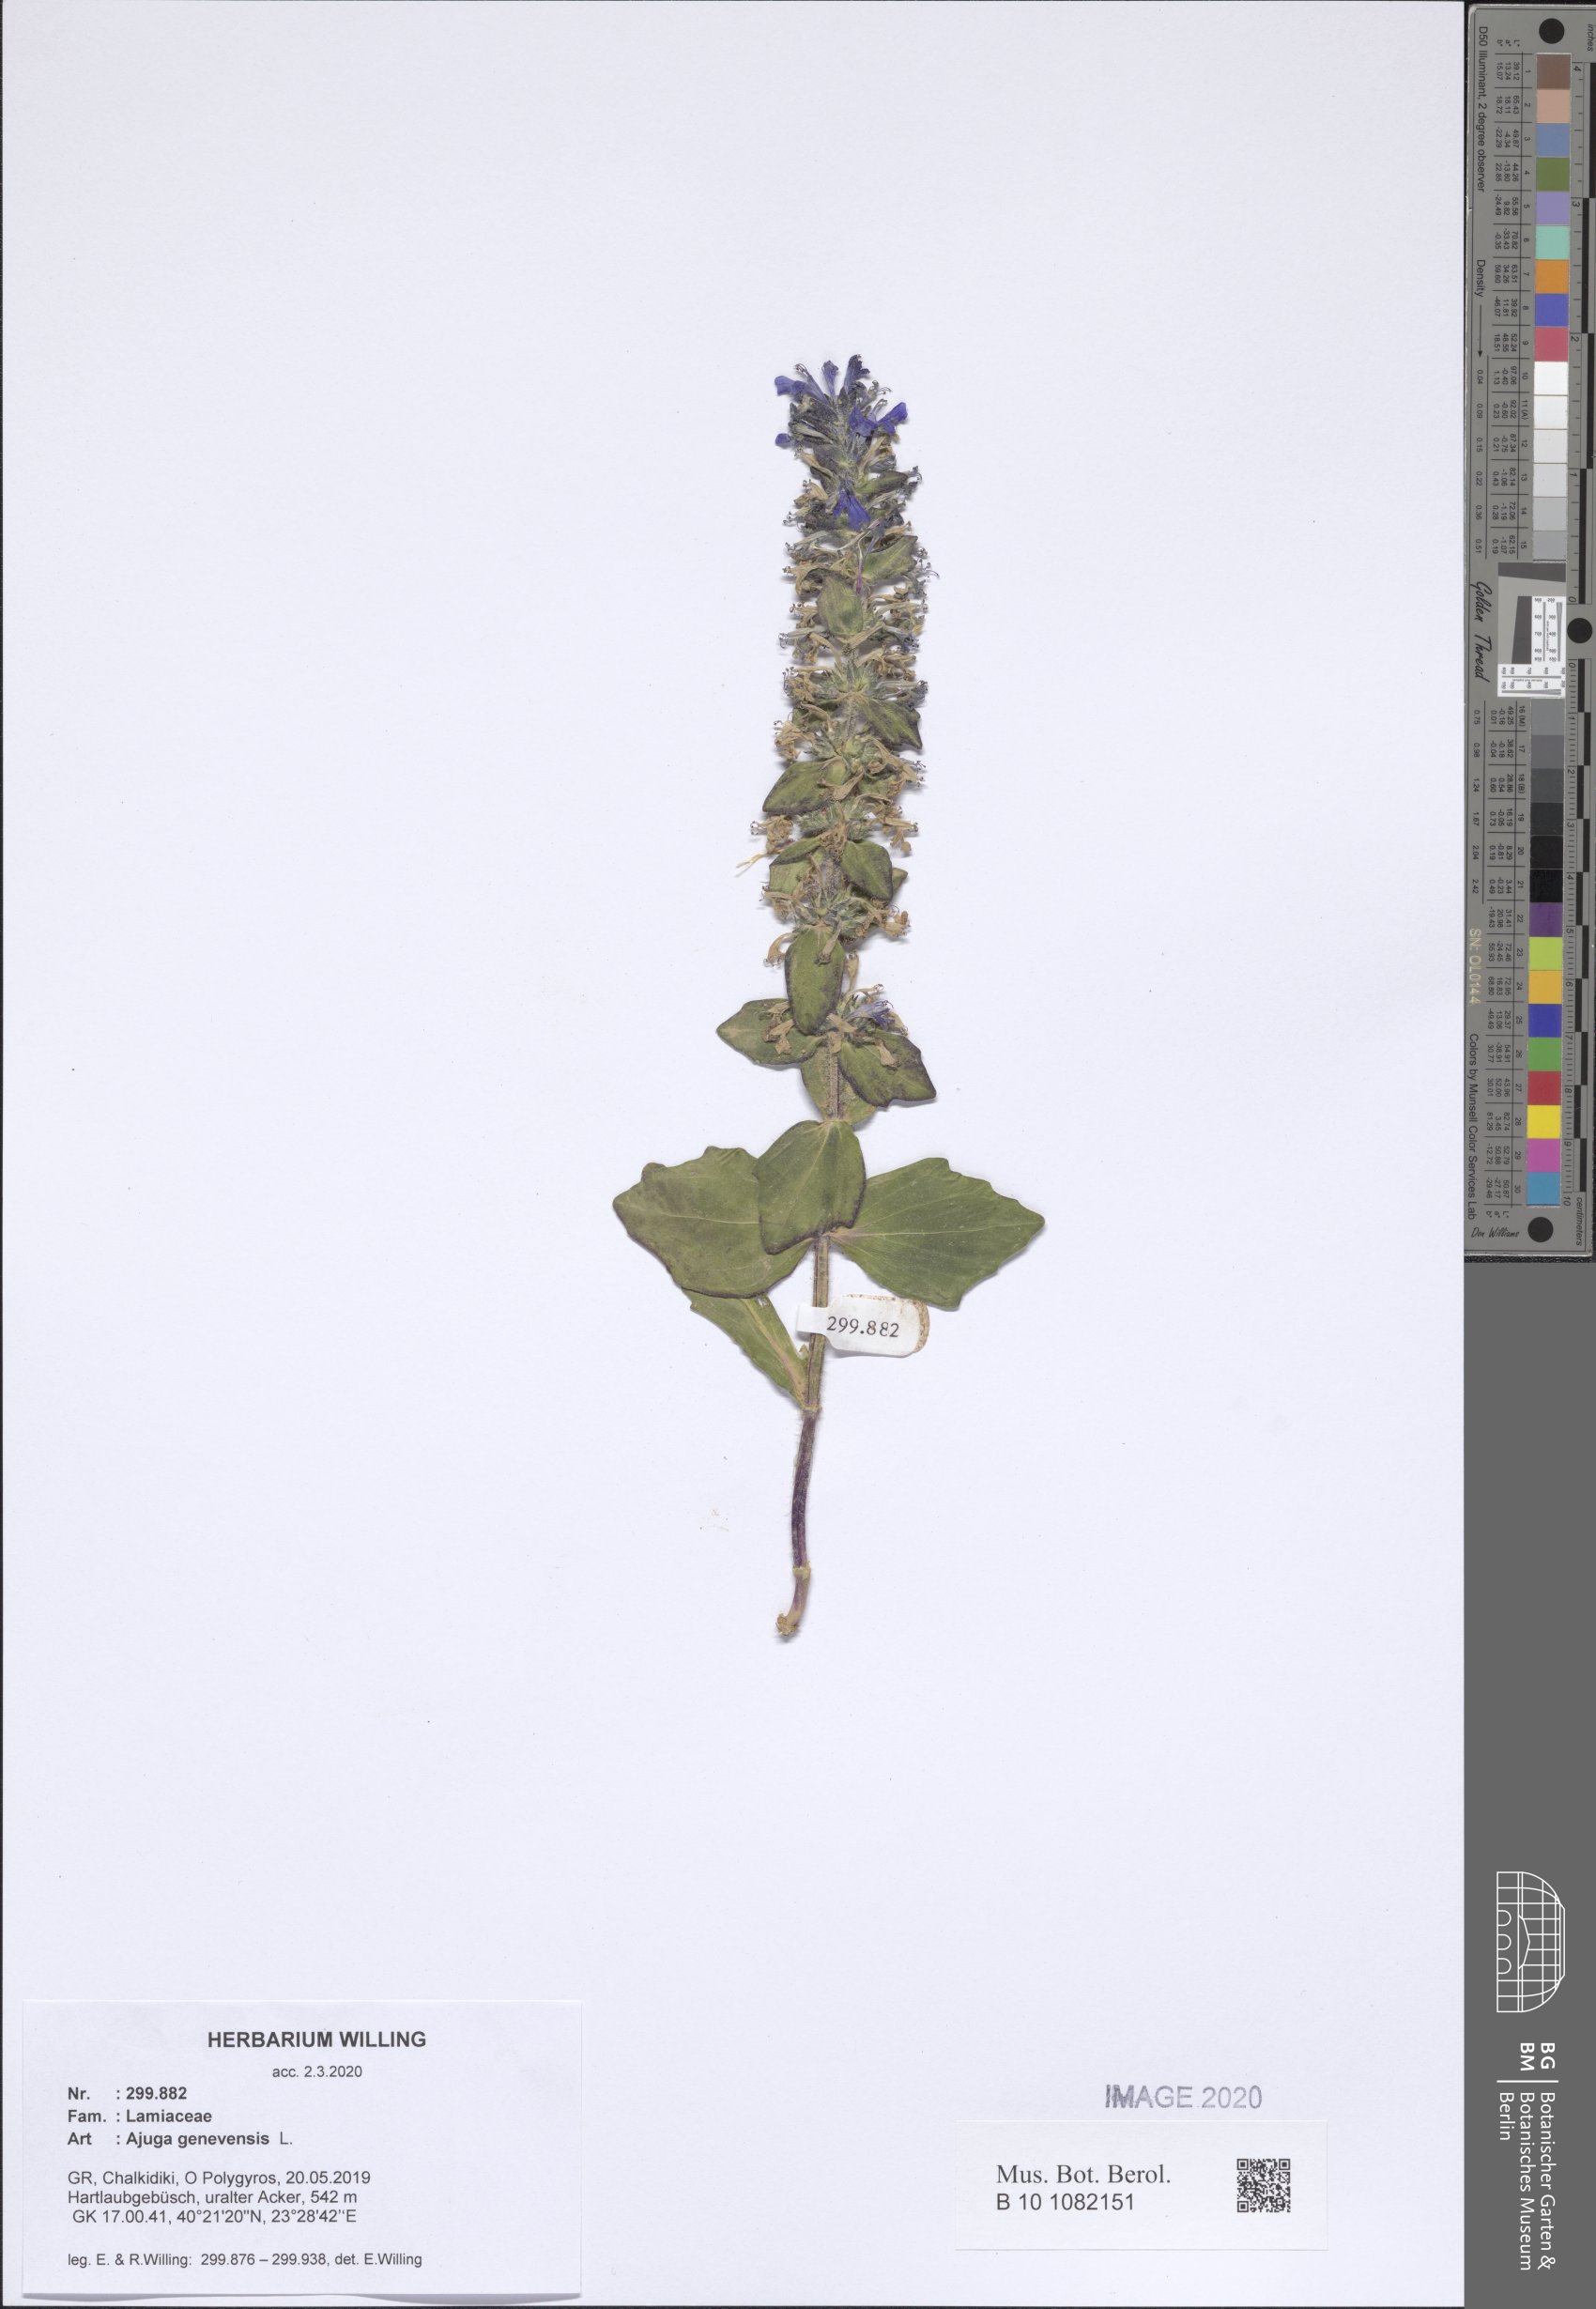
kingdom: Plantae
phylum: Tracheophyta
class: Magnoliopsida
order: Lamiales
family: Lamiaceae
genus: Ajuga
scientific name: Ajuga genevensis
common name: Blue bugle
